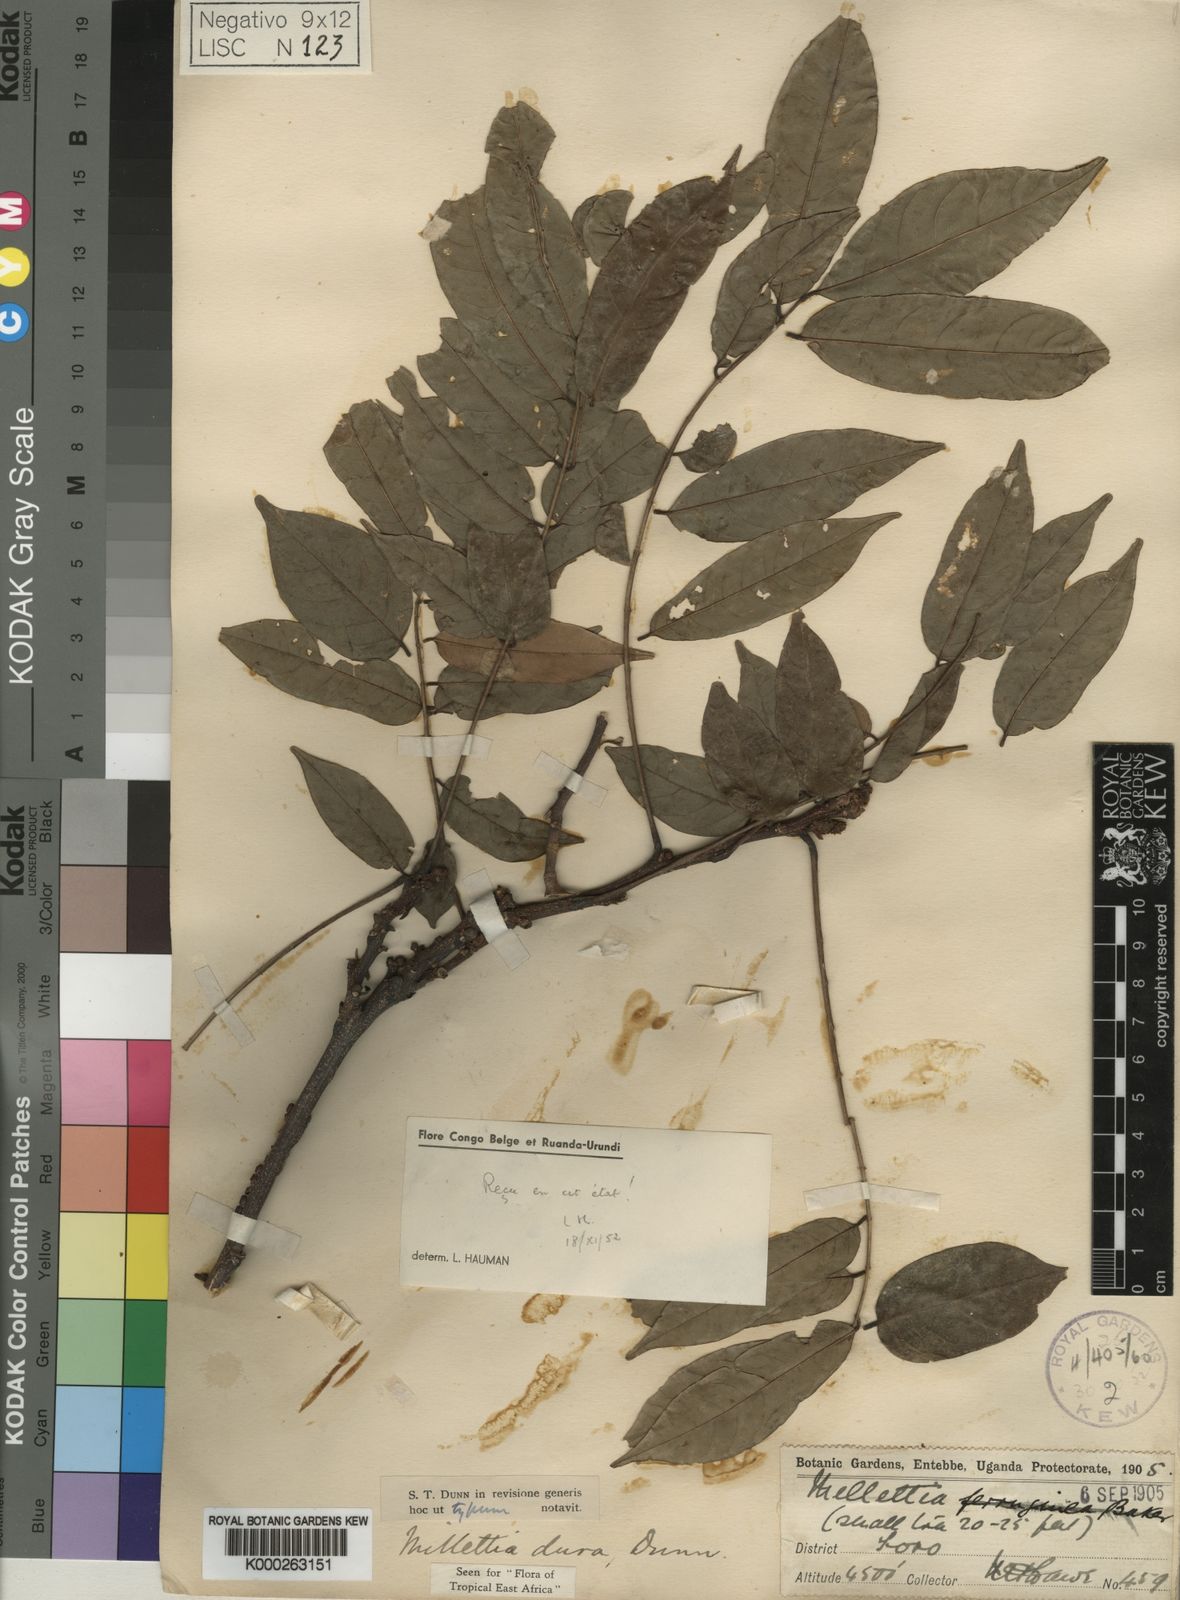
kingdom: Plantae
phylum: Tracheophyta
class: Magnoliopsida
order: Fabales
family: Fabaceae
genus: Millettia
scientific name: Millettia dura
